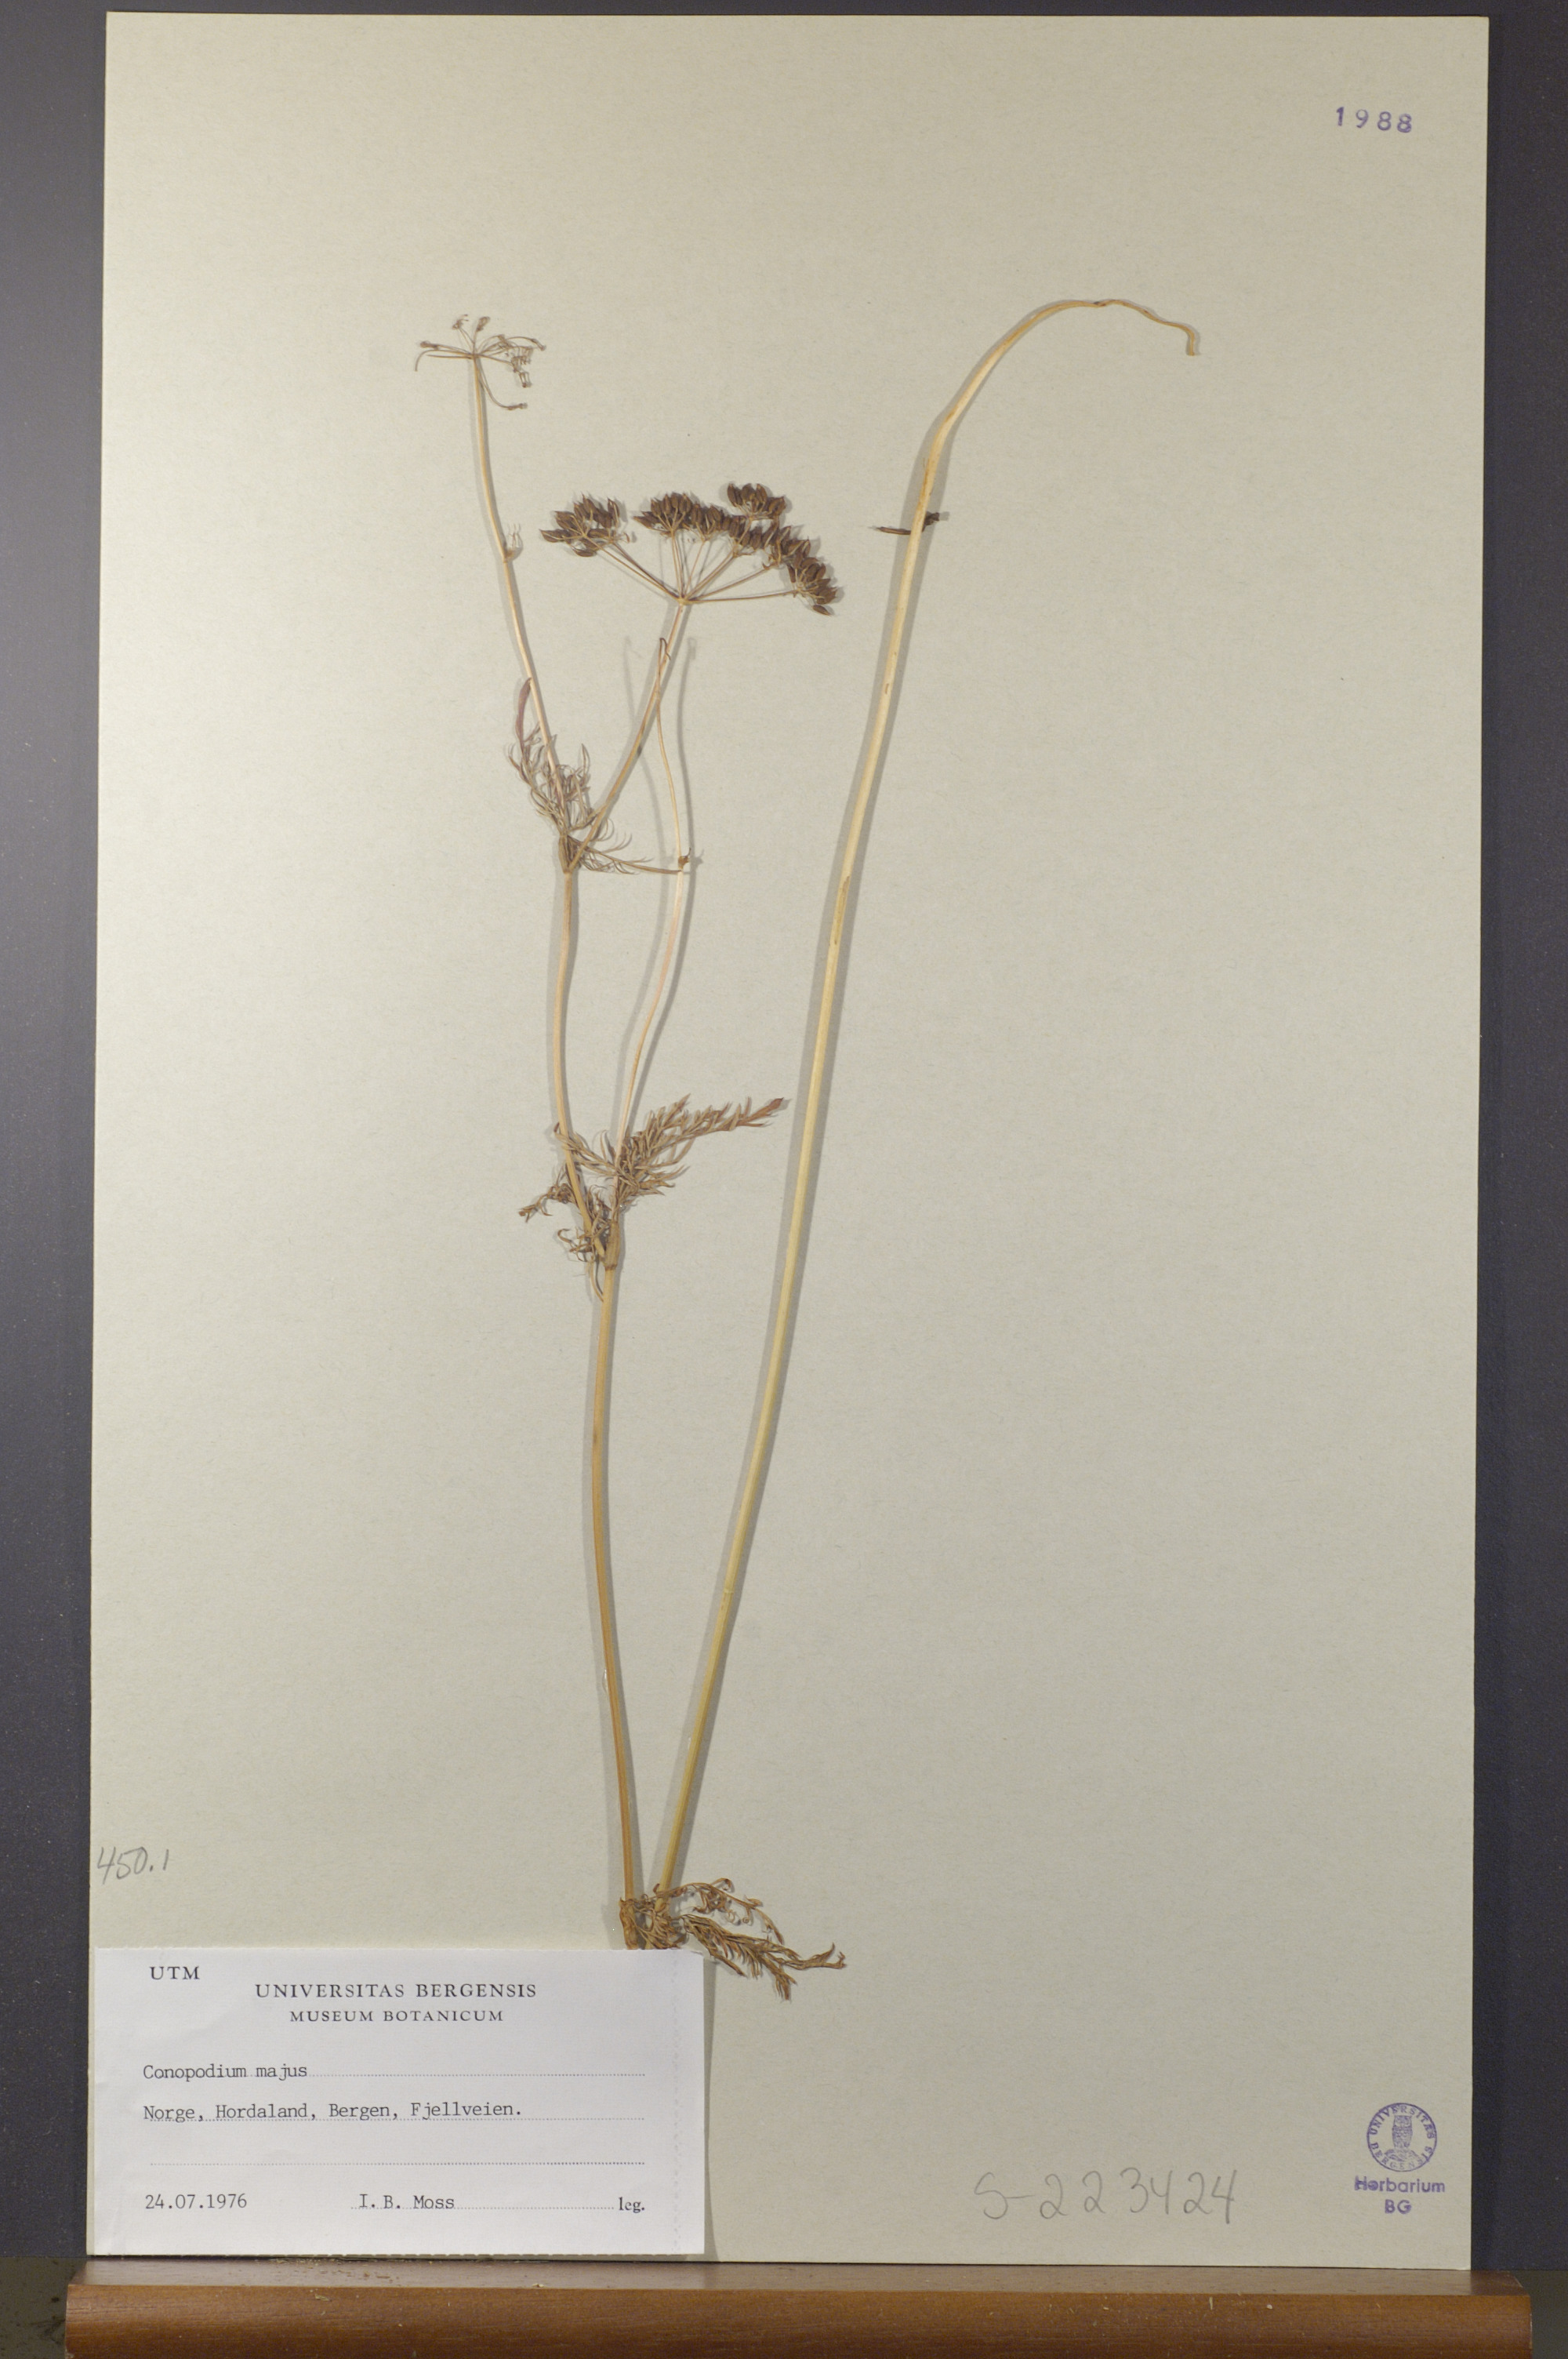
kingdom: Plantae
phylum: Tracheophyta
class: Magnoliopsida
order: Apiales
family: Apiaceae
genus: Conopodium
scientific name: Conopodium majus
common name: Pignut
